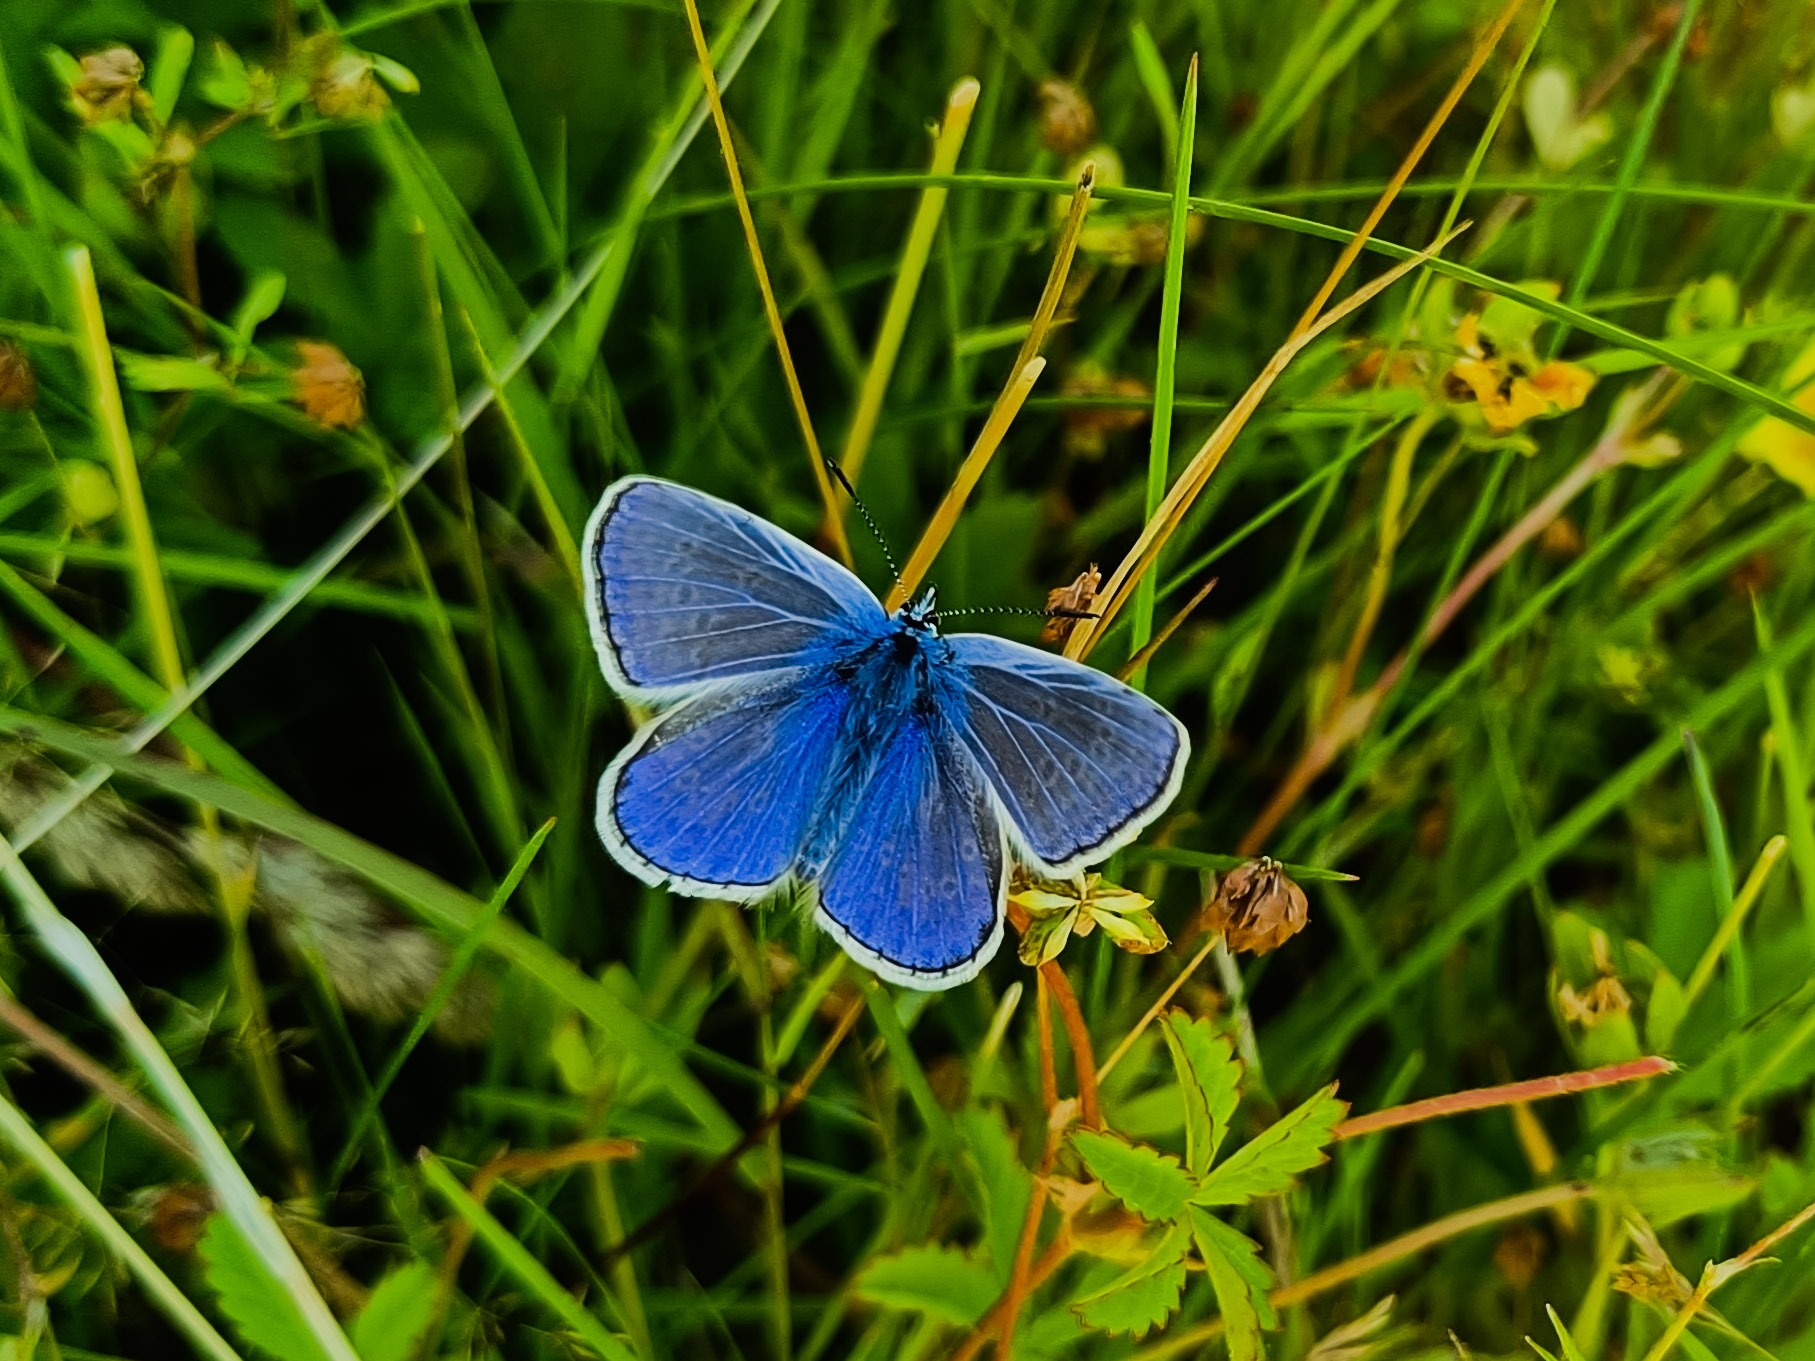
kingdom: Animalia
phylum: Arthropoda
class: Insecta
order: Lepidoptera
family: Lycaenidae
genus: Polyommatus
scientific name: Polyommatus icarus
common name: Almindelig blåfugl
